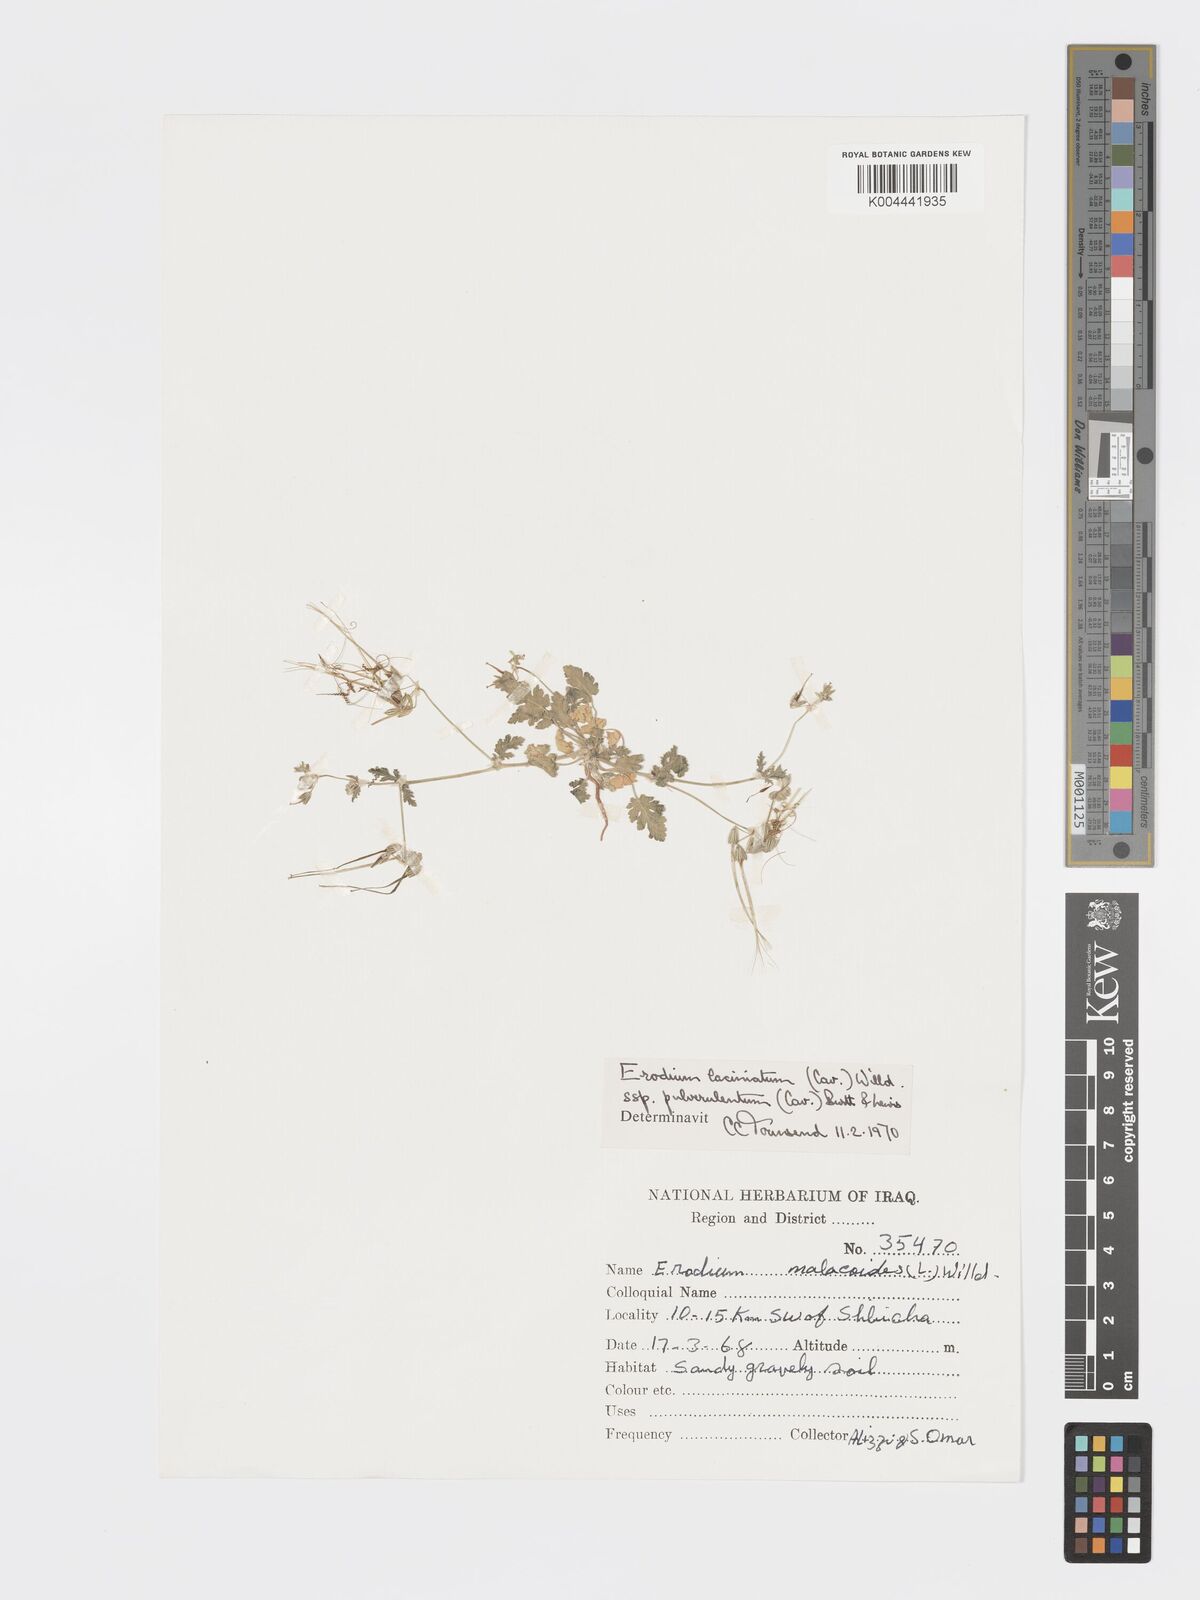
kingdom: Plantae
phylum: Tracheophyta
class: Magnoliopsida
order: Geraniales
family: Geraniaceae
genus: Erodium
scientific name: Erodium laciniatum
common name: Cutleaf stork's bill
